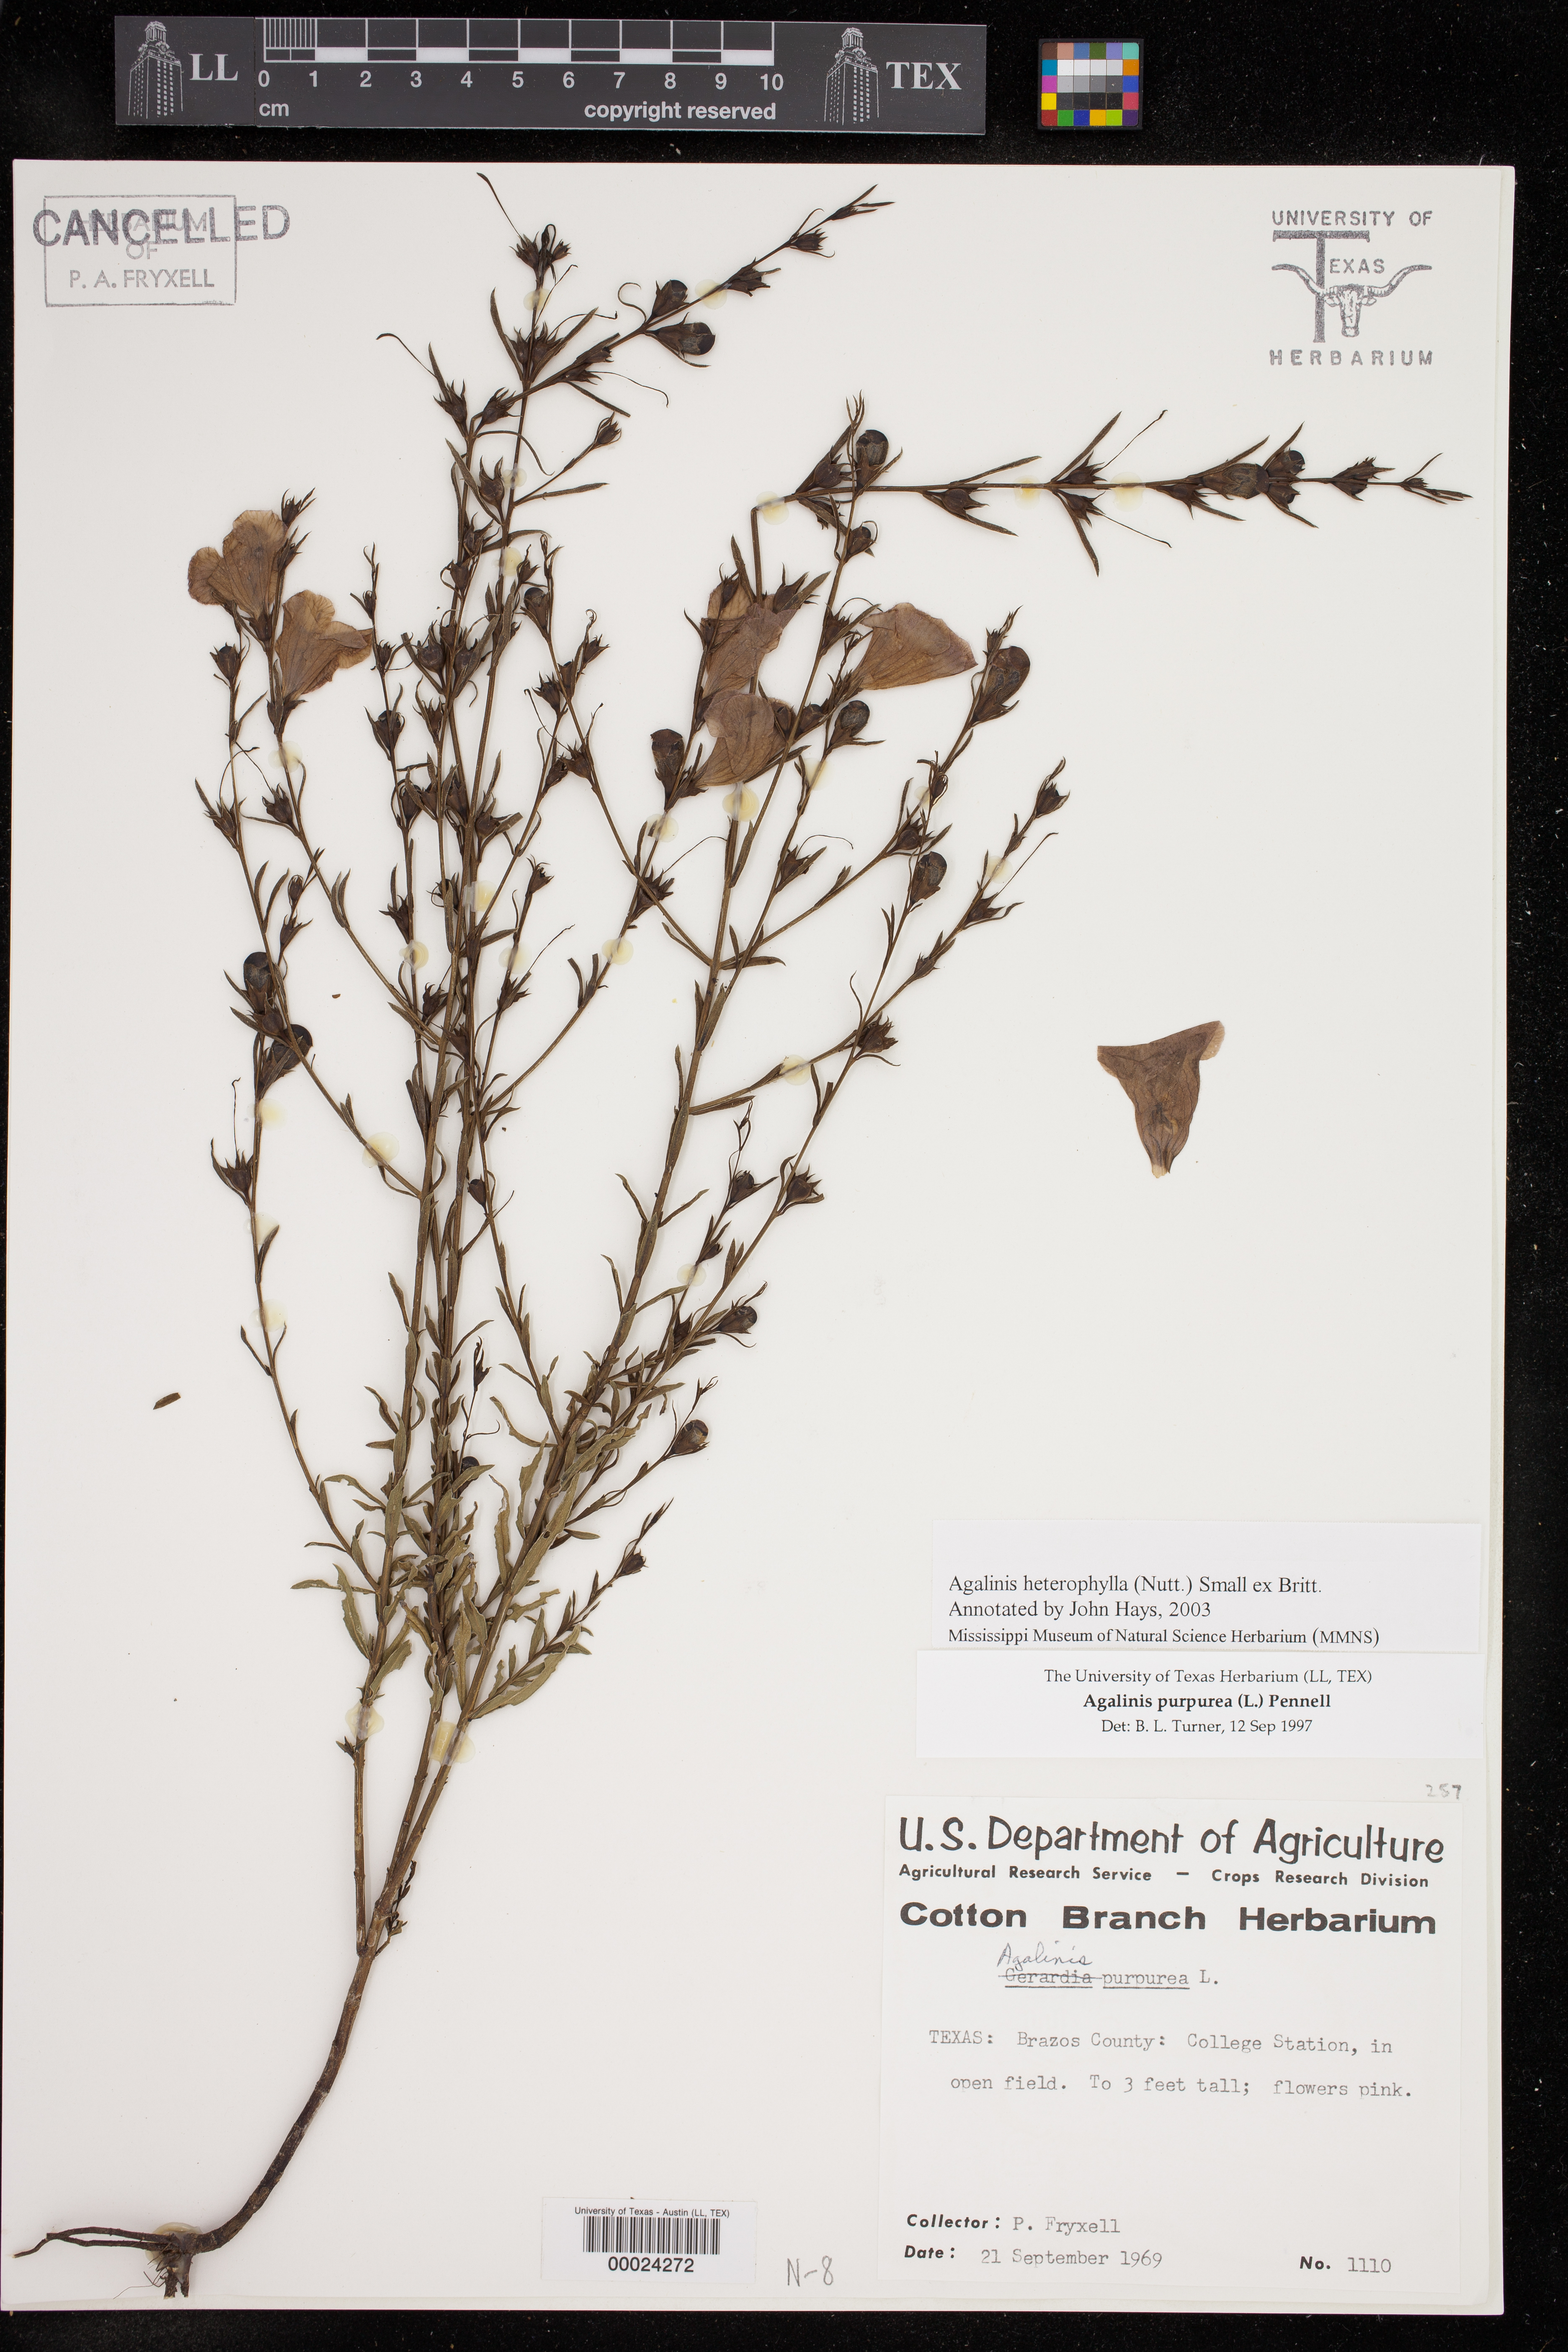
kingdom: Plantae
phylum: Tracheophyta
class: Magnoliopsida
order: Lamiales
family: Orobanchaceae
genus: Agalinis
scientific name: Agalinis heterophylla
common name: Prairie agalinis
